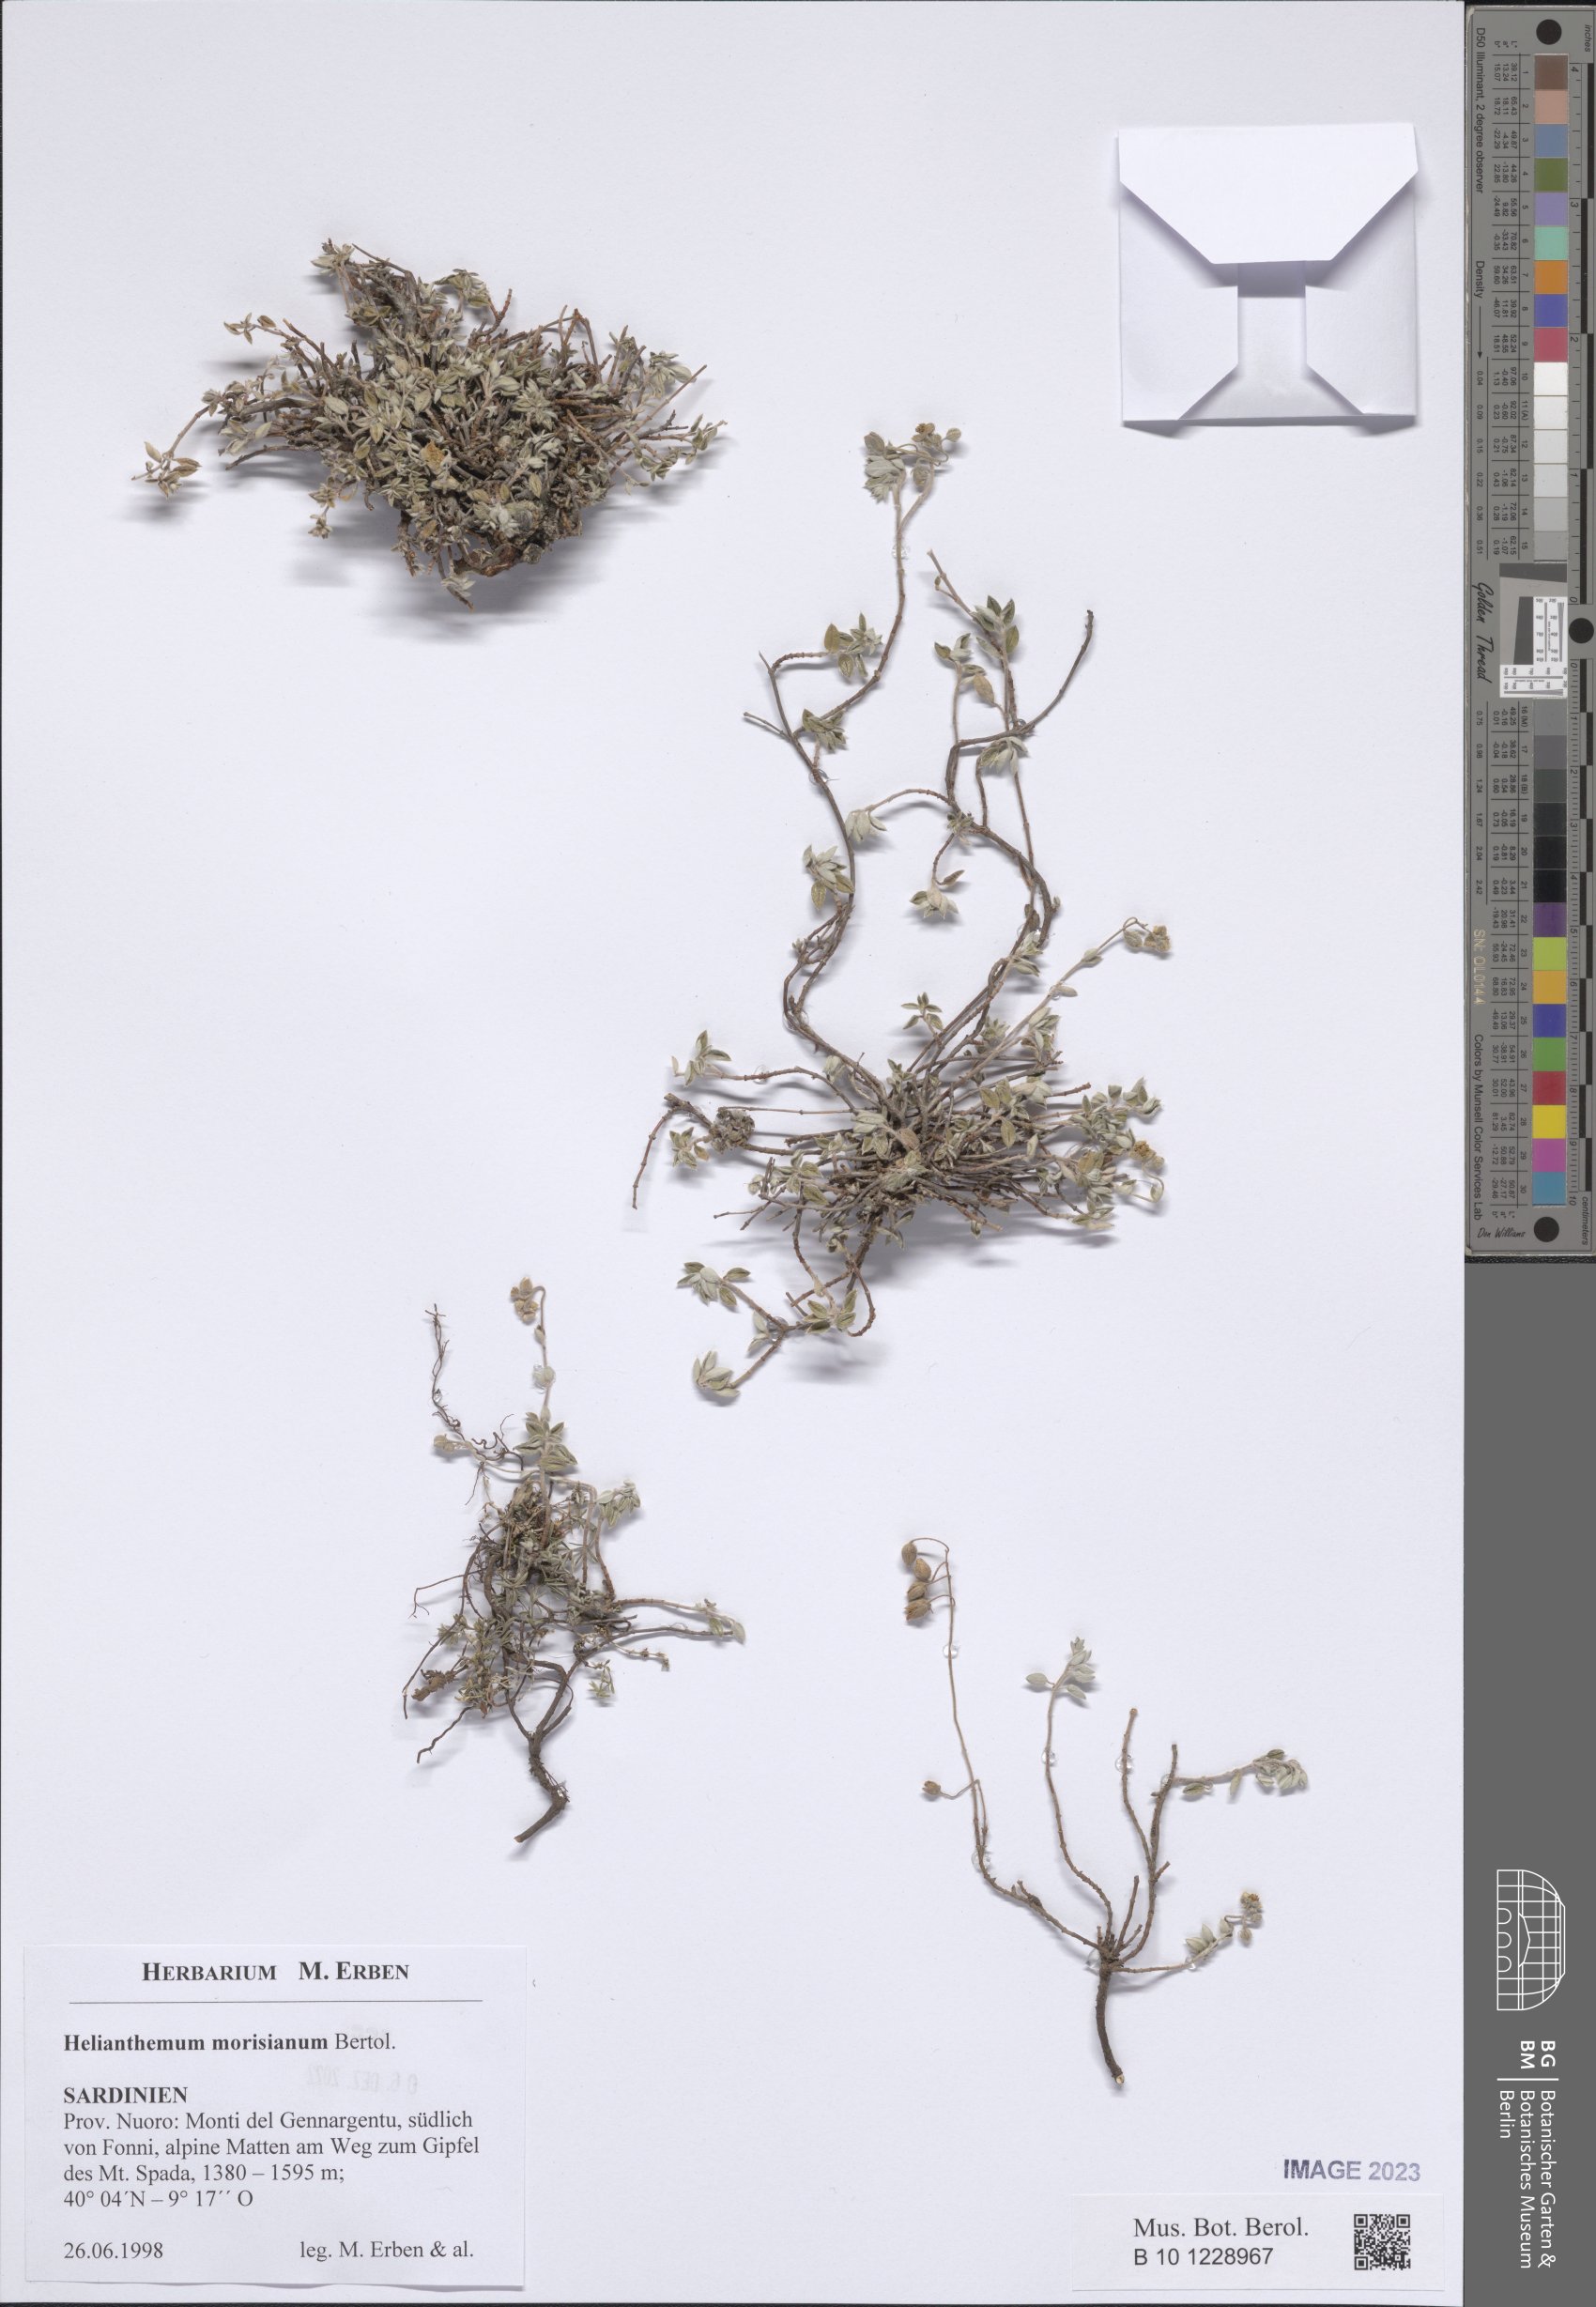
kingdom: Plantae
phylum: Tracheophyta
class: Magnoliopsida
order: Malvales
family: Cistaceae
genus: Helianthemum
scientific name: Helianthemum morisianum
